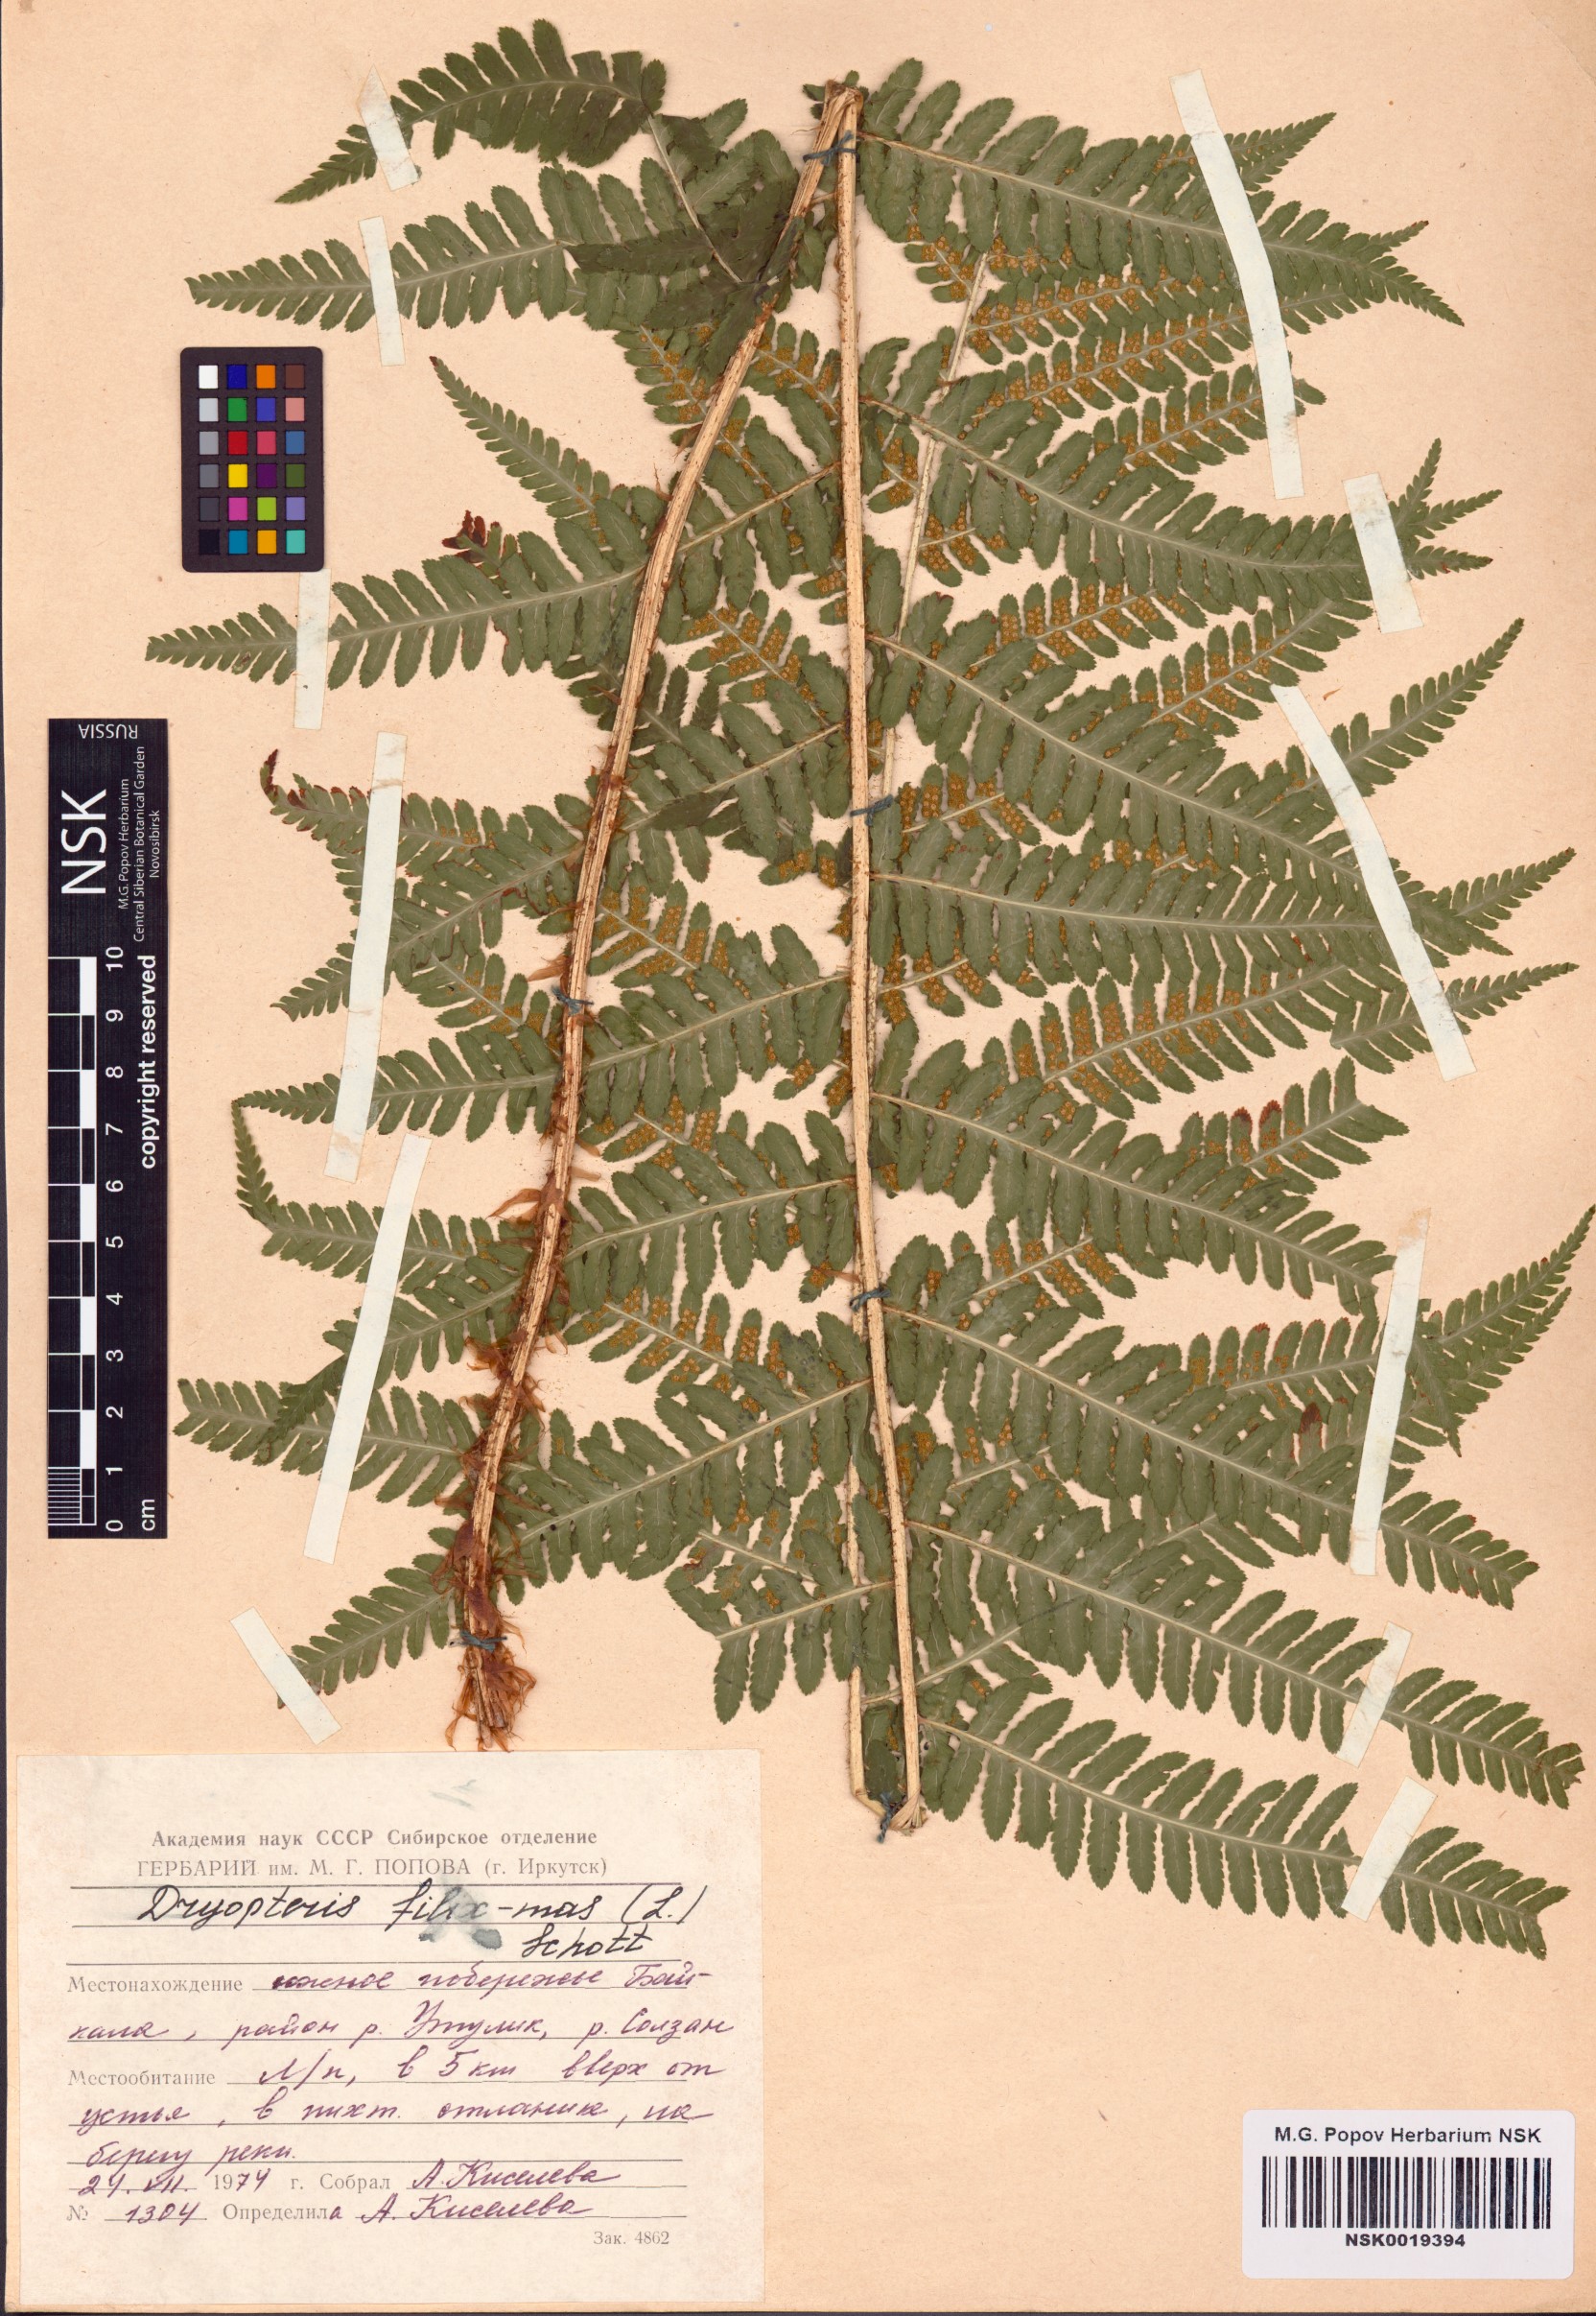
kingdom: Plantae
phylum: Tracheophyta
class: Polypodiopsida
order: Polypodiales
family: Dryopteridaceae
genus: Dryopteris
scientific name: Dryopteris filix-mas
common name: Male fern
